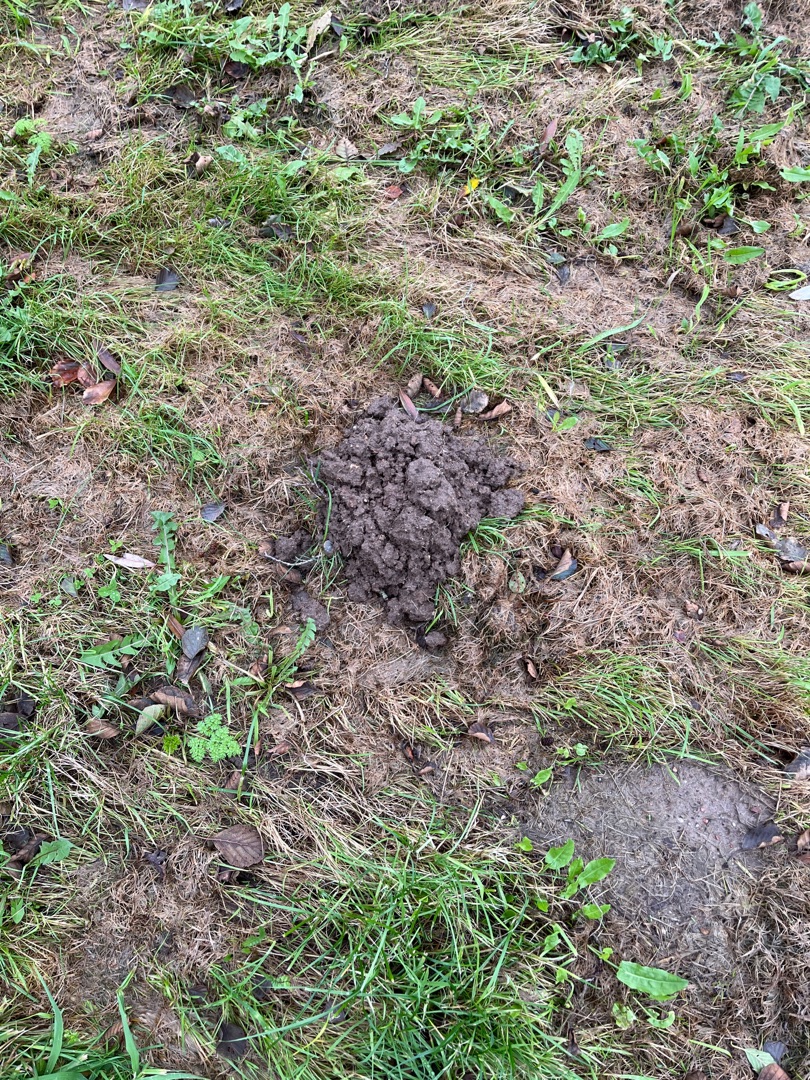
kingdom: Animalia
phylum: Chordata
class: Mammalia
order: Soricomorpha
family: Talpidae
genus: Talpa
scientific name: Talpa europaea
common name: Muldvarp
